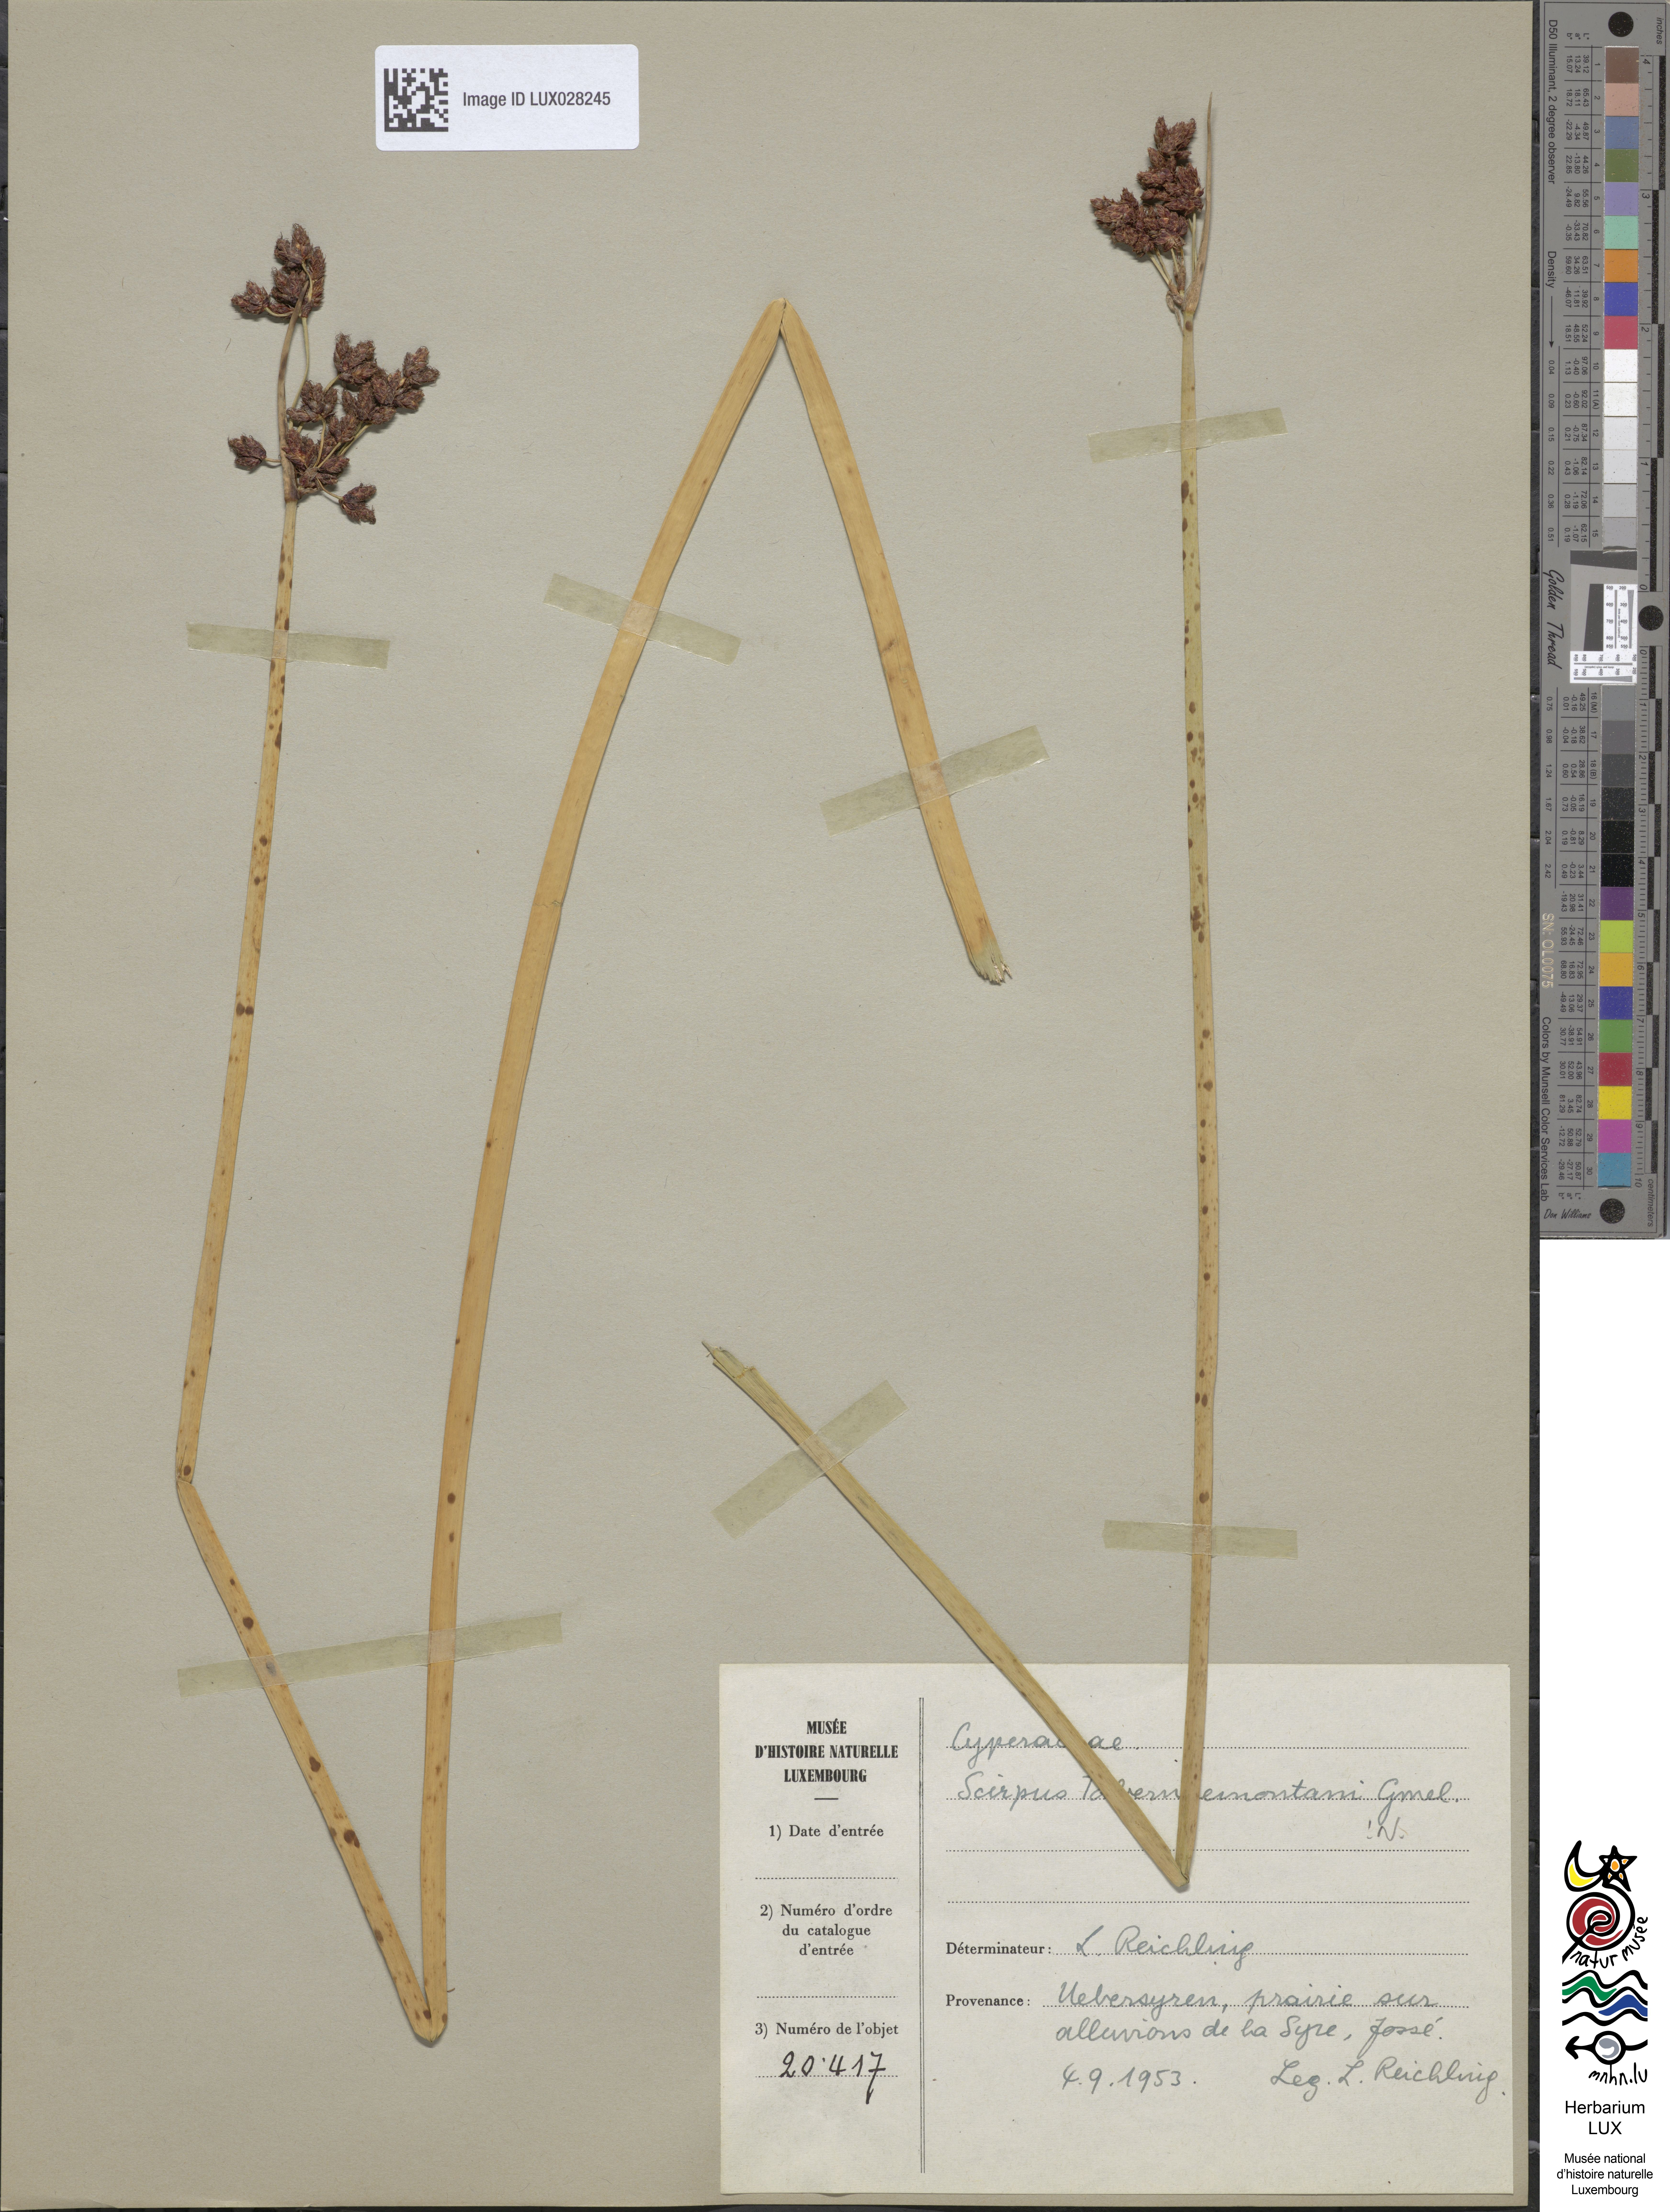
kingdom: Plantae
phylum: Tracheophyta
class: Liliopsida
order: Poales
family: Cyperaceae
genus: Schoenoplectus
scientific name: Schoenoplectus tabernaemontani
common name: Grey club-rush
